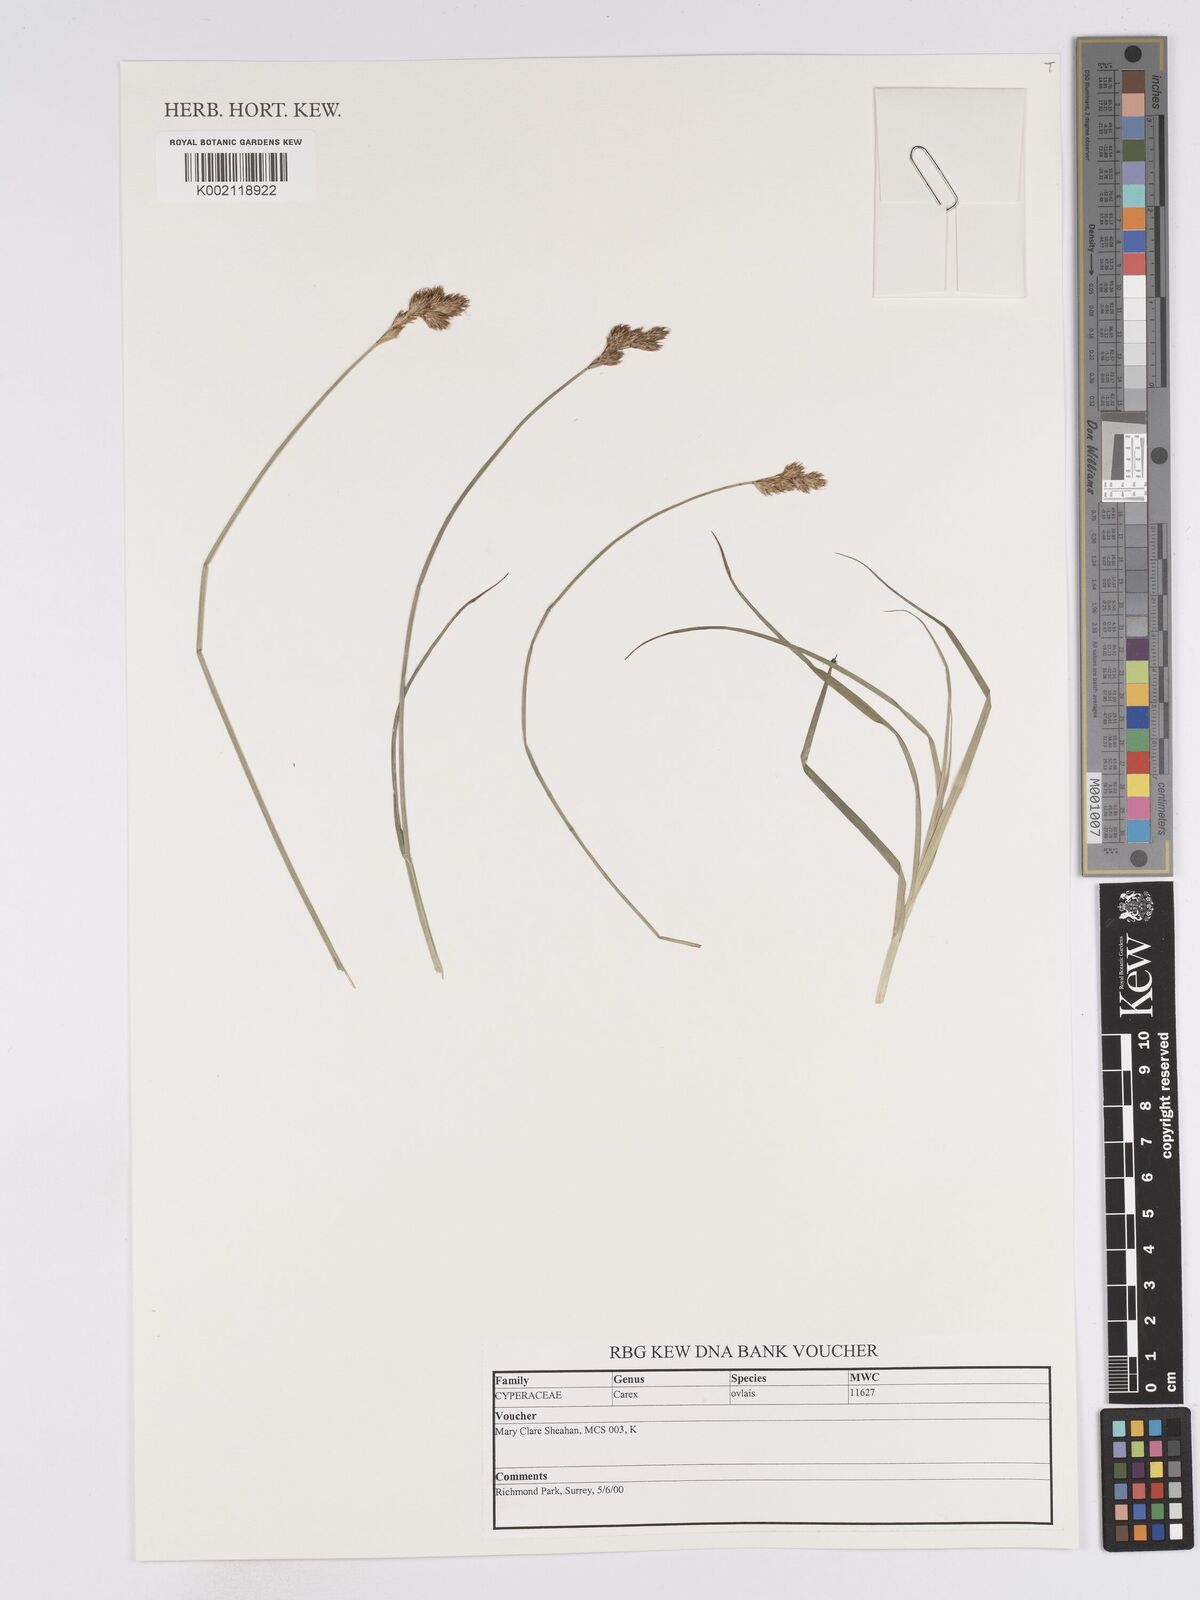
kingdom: Plantae
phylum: Tracheophyta
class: Liliopsida
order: Poales
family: Cyperaceae
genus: Carex
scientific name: Carex leporina
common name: Oval sedge
